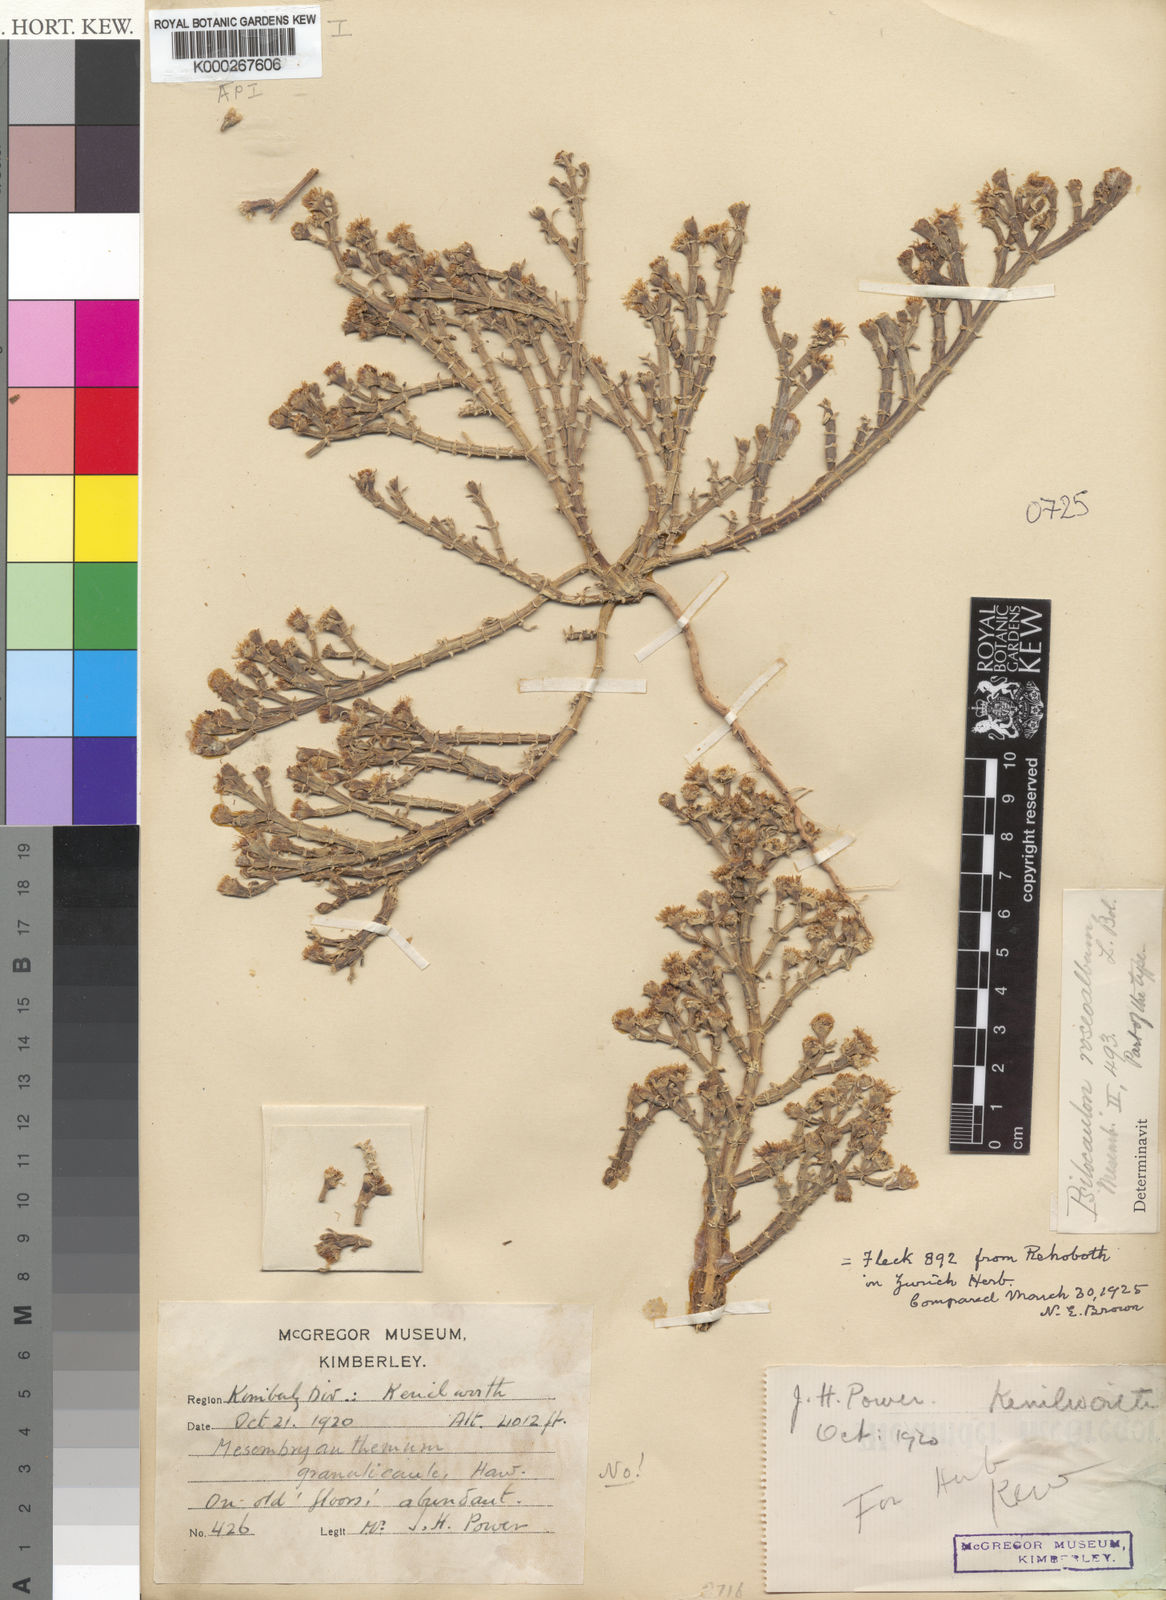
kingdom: Plantae
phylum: Tracheophyta
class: Magnoliopsida
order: Caryophyllales
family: Aizoaceae
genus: Mesembryanthemum
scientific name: Mesembryanthemum articulatum
